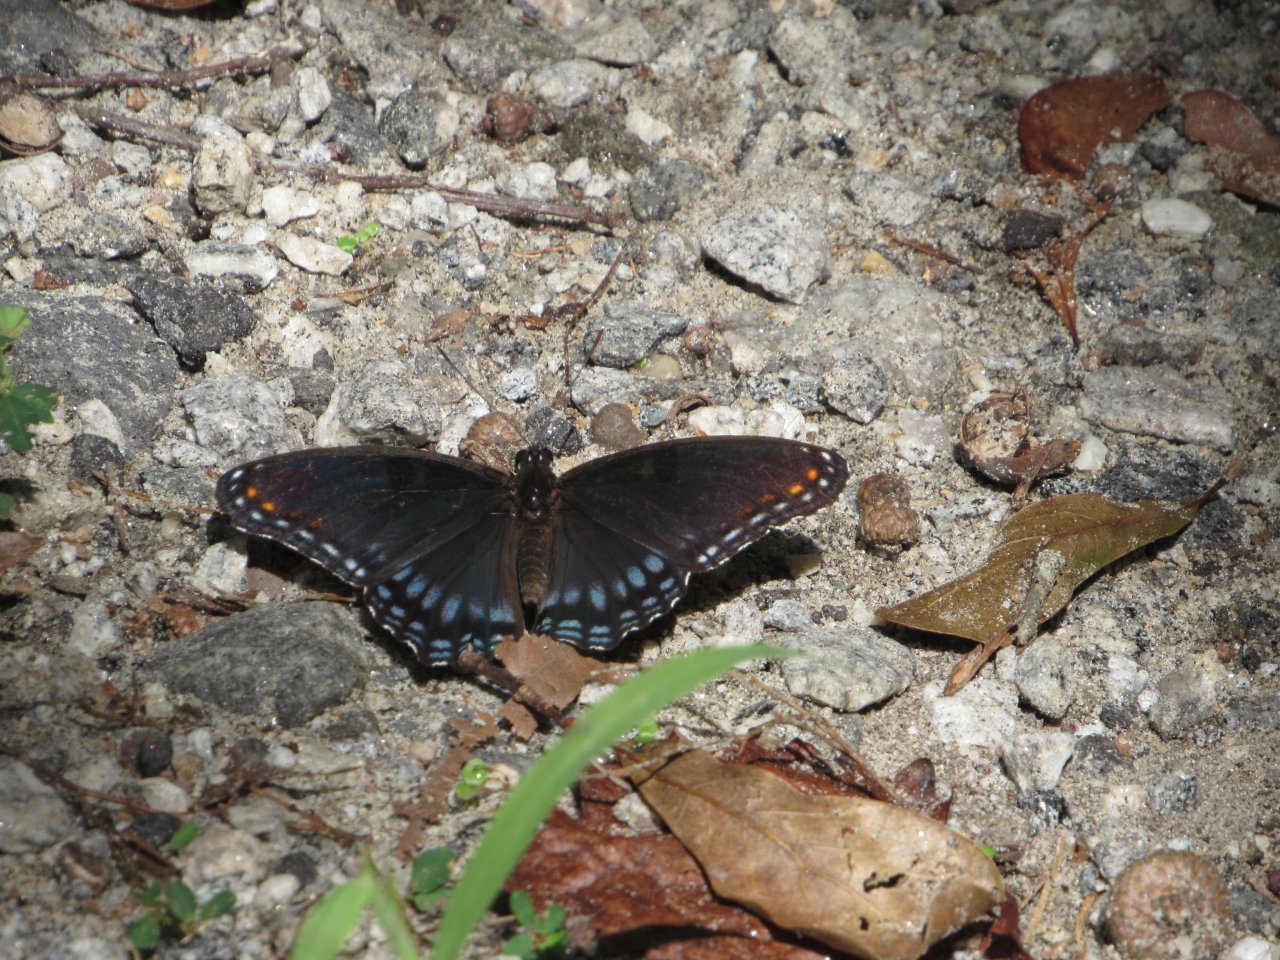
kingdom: Animalia
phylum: Arthropoda
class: Insecta
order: Lepidoptera
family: Nymphalidae
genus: Limenitis
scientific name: Limenitis astyanax
